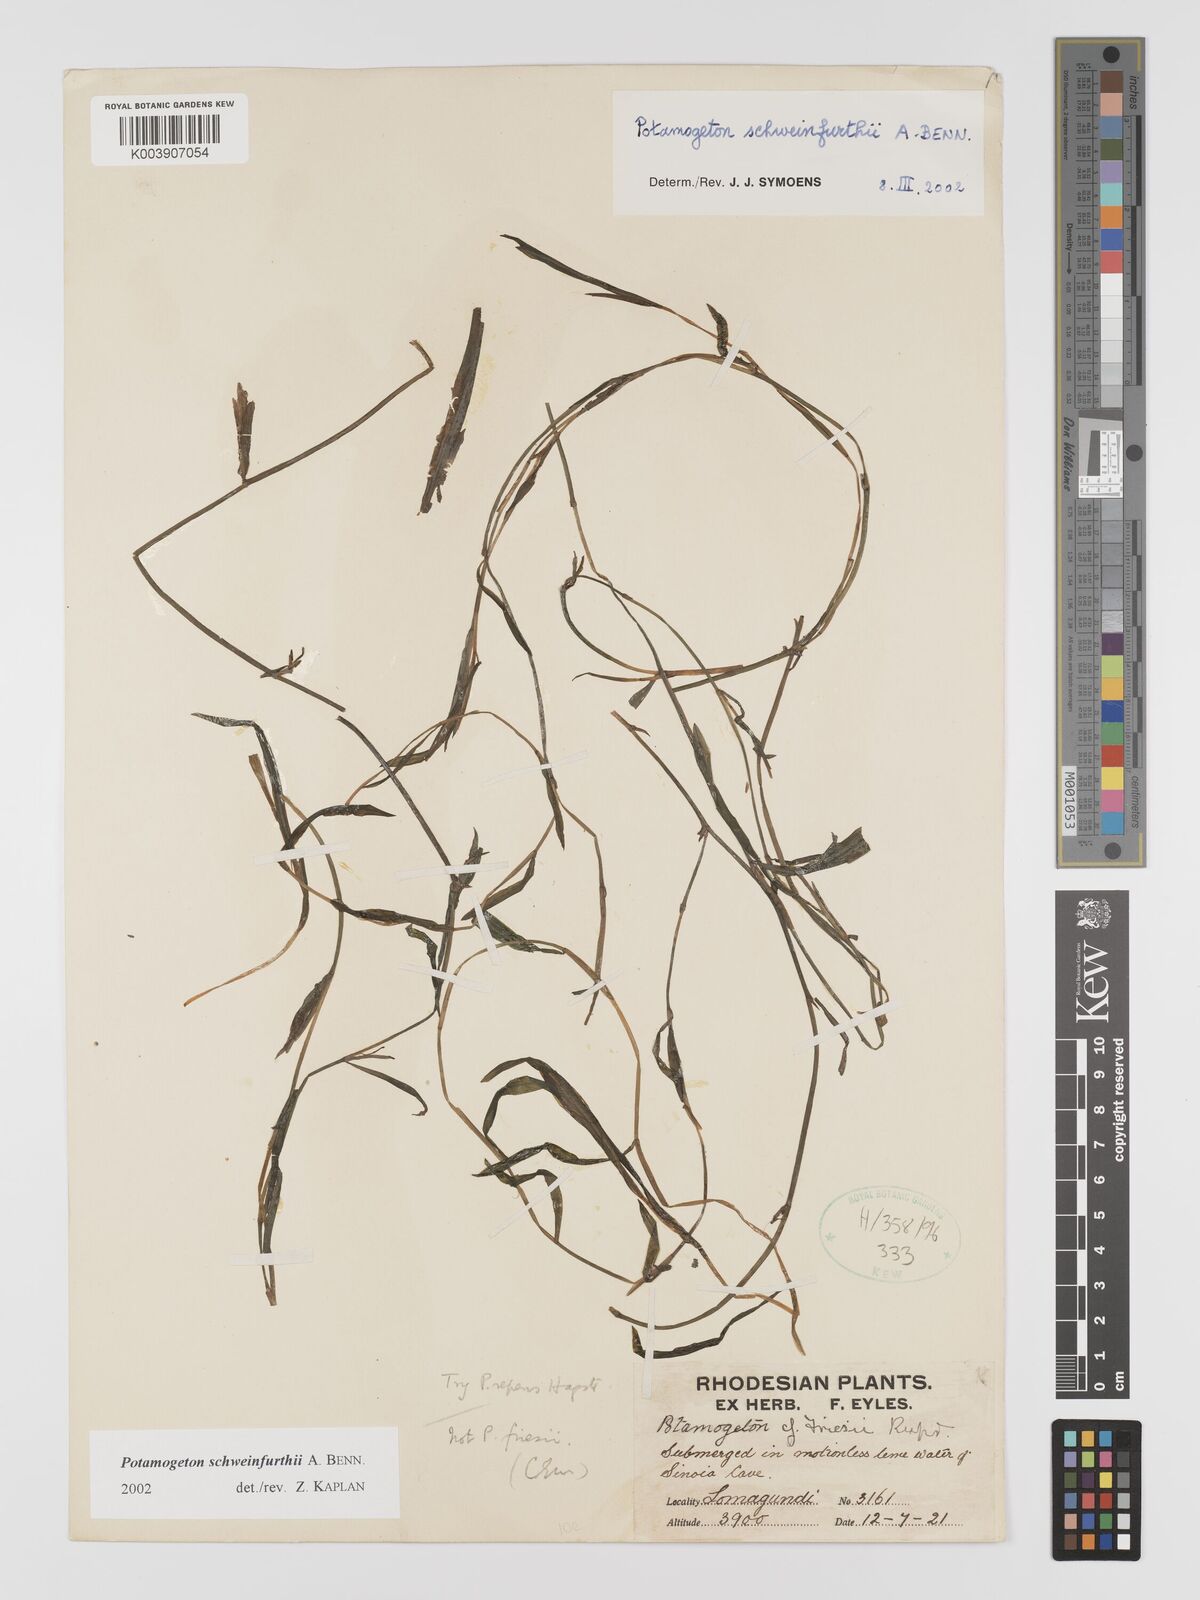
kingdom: Plantae
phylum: Tracheophyta
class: Liliopsida
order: Alismatales
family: Potamogetonaceae
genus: Potamogeton
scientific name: Potamogeton schweinfurthii
